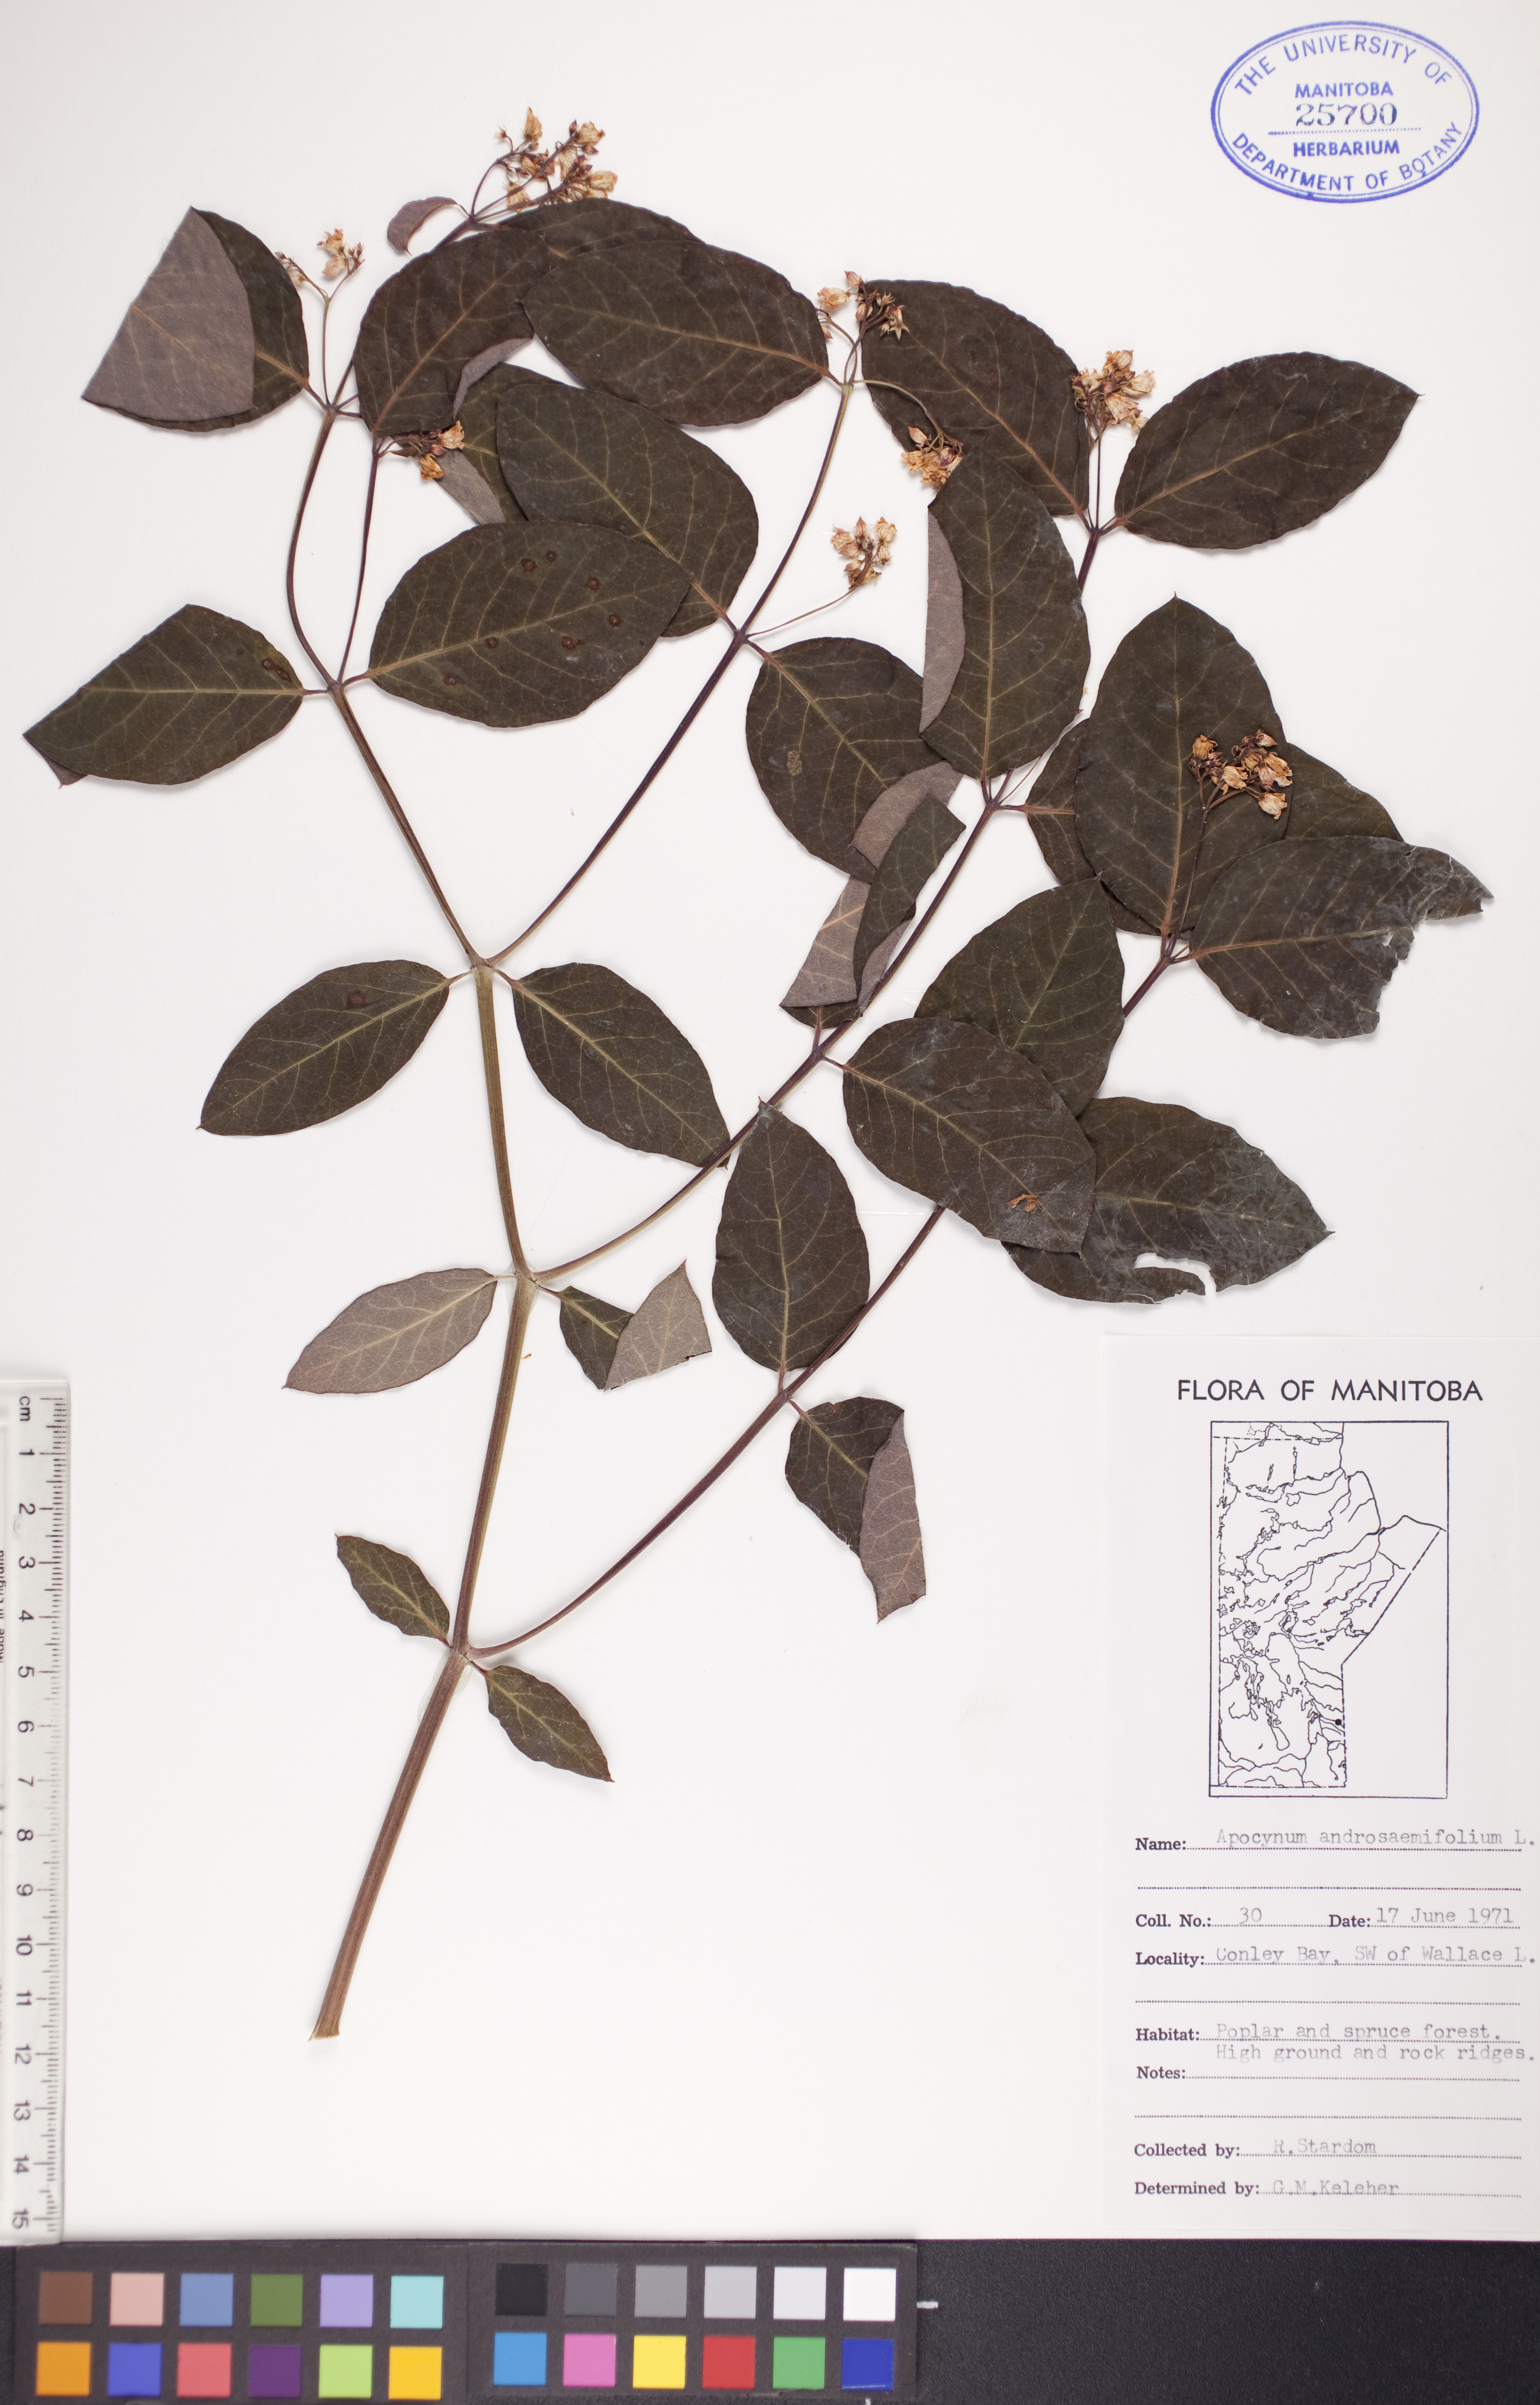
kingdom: Plantae
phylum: Tracheophyta
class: Magnoliopsida
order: Gentianales
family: Apocynaceae
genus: Apocynum
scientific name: Apocynum androsaemifolium
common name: Spreading dogbane
